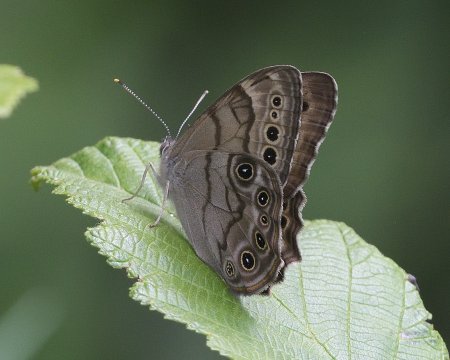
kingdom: Animalia
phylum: Arthropoda
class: Insecta
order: Lepidoptera
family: Nymphalidae
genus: Lethe
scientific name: Lethe anthedon
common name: Northern Pearly-Eye
